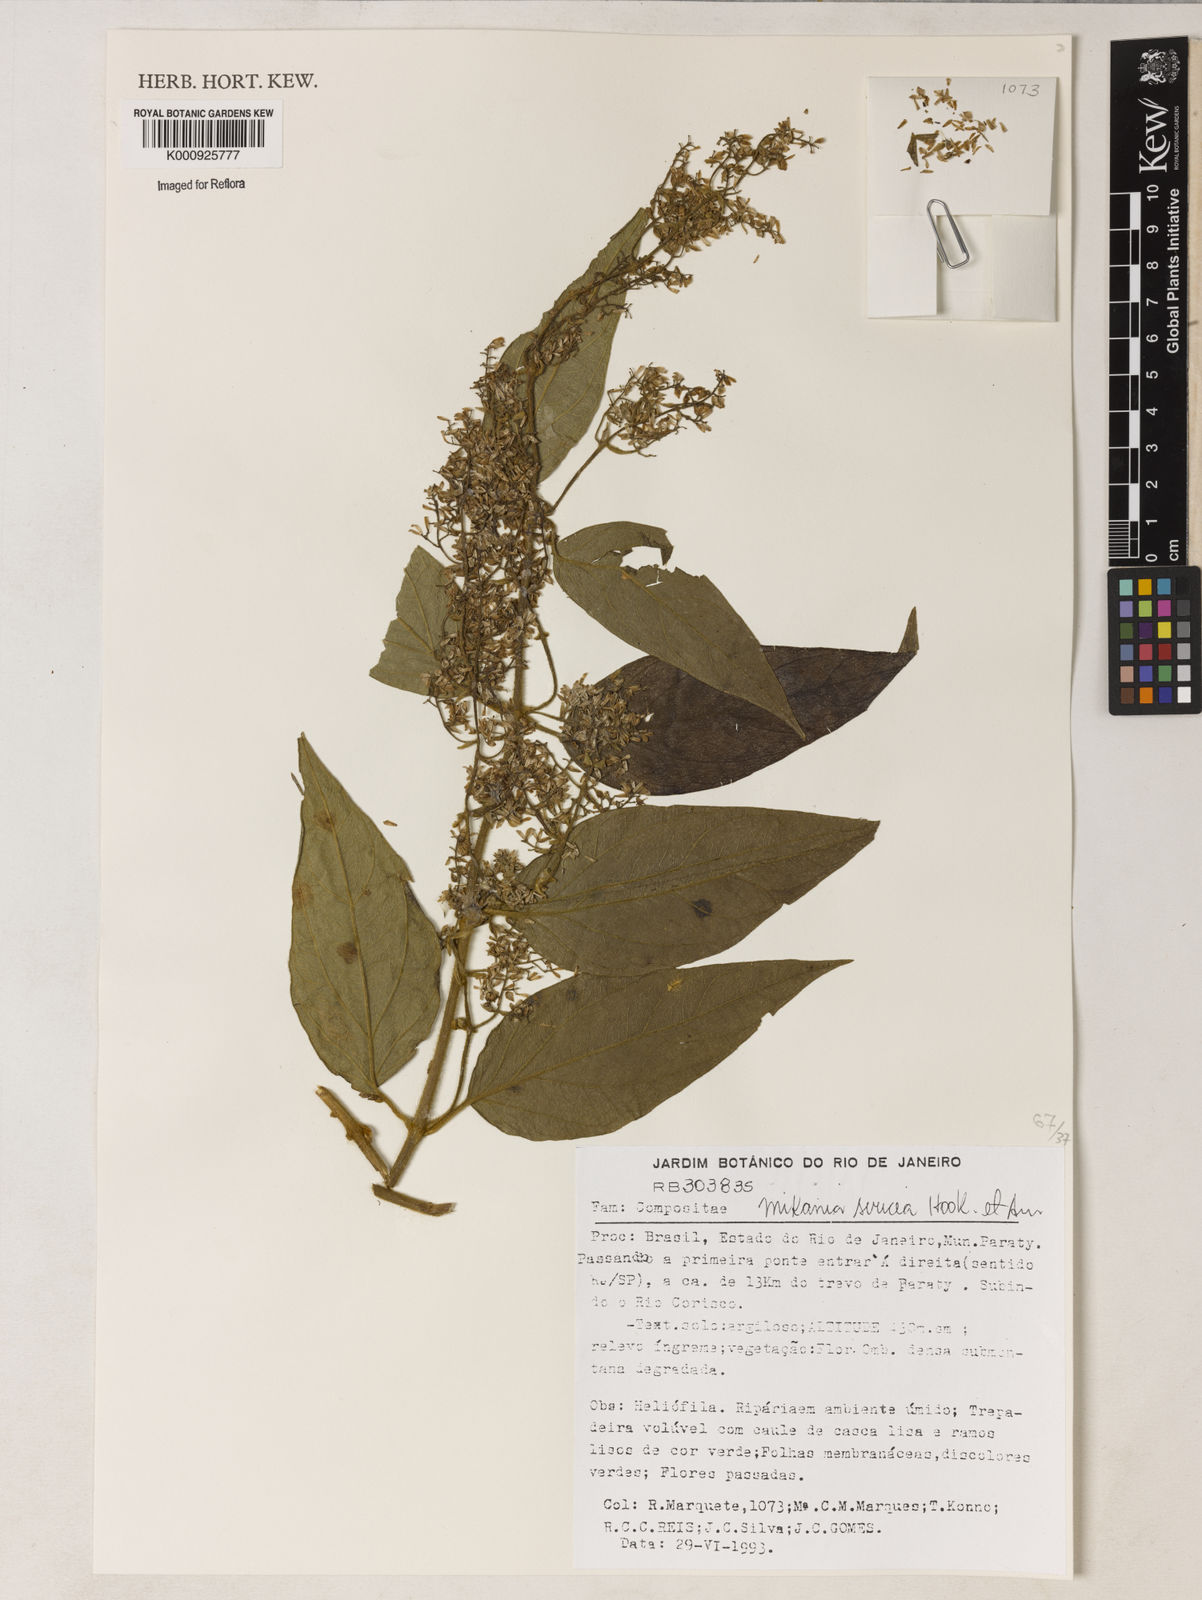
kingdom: Plantae
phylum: Tracheophyta
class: Magnoliopsida
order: Asterales
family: Asteraceae
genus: Mikania
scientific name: Mikania sericea
